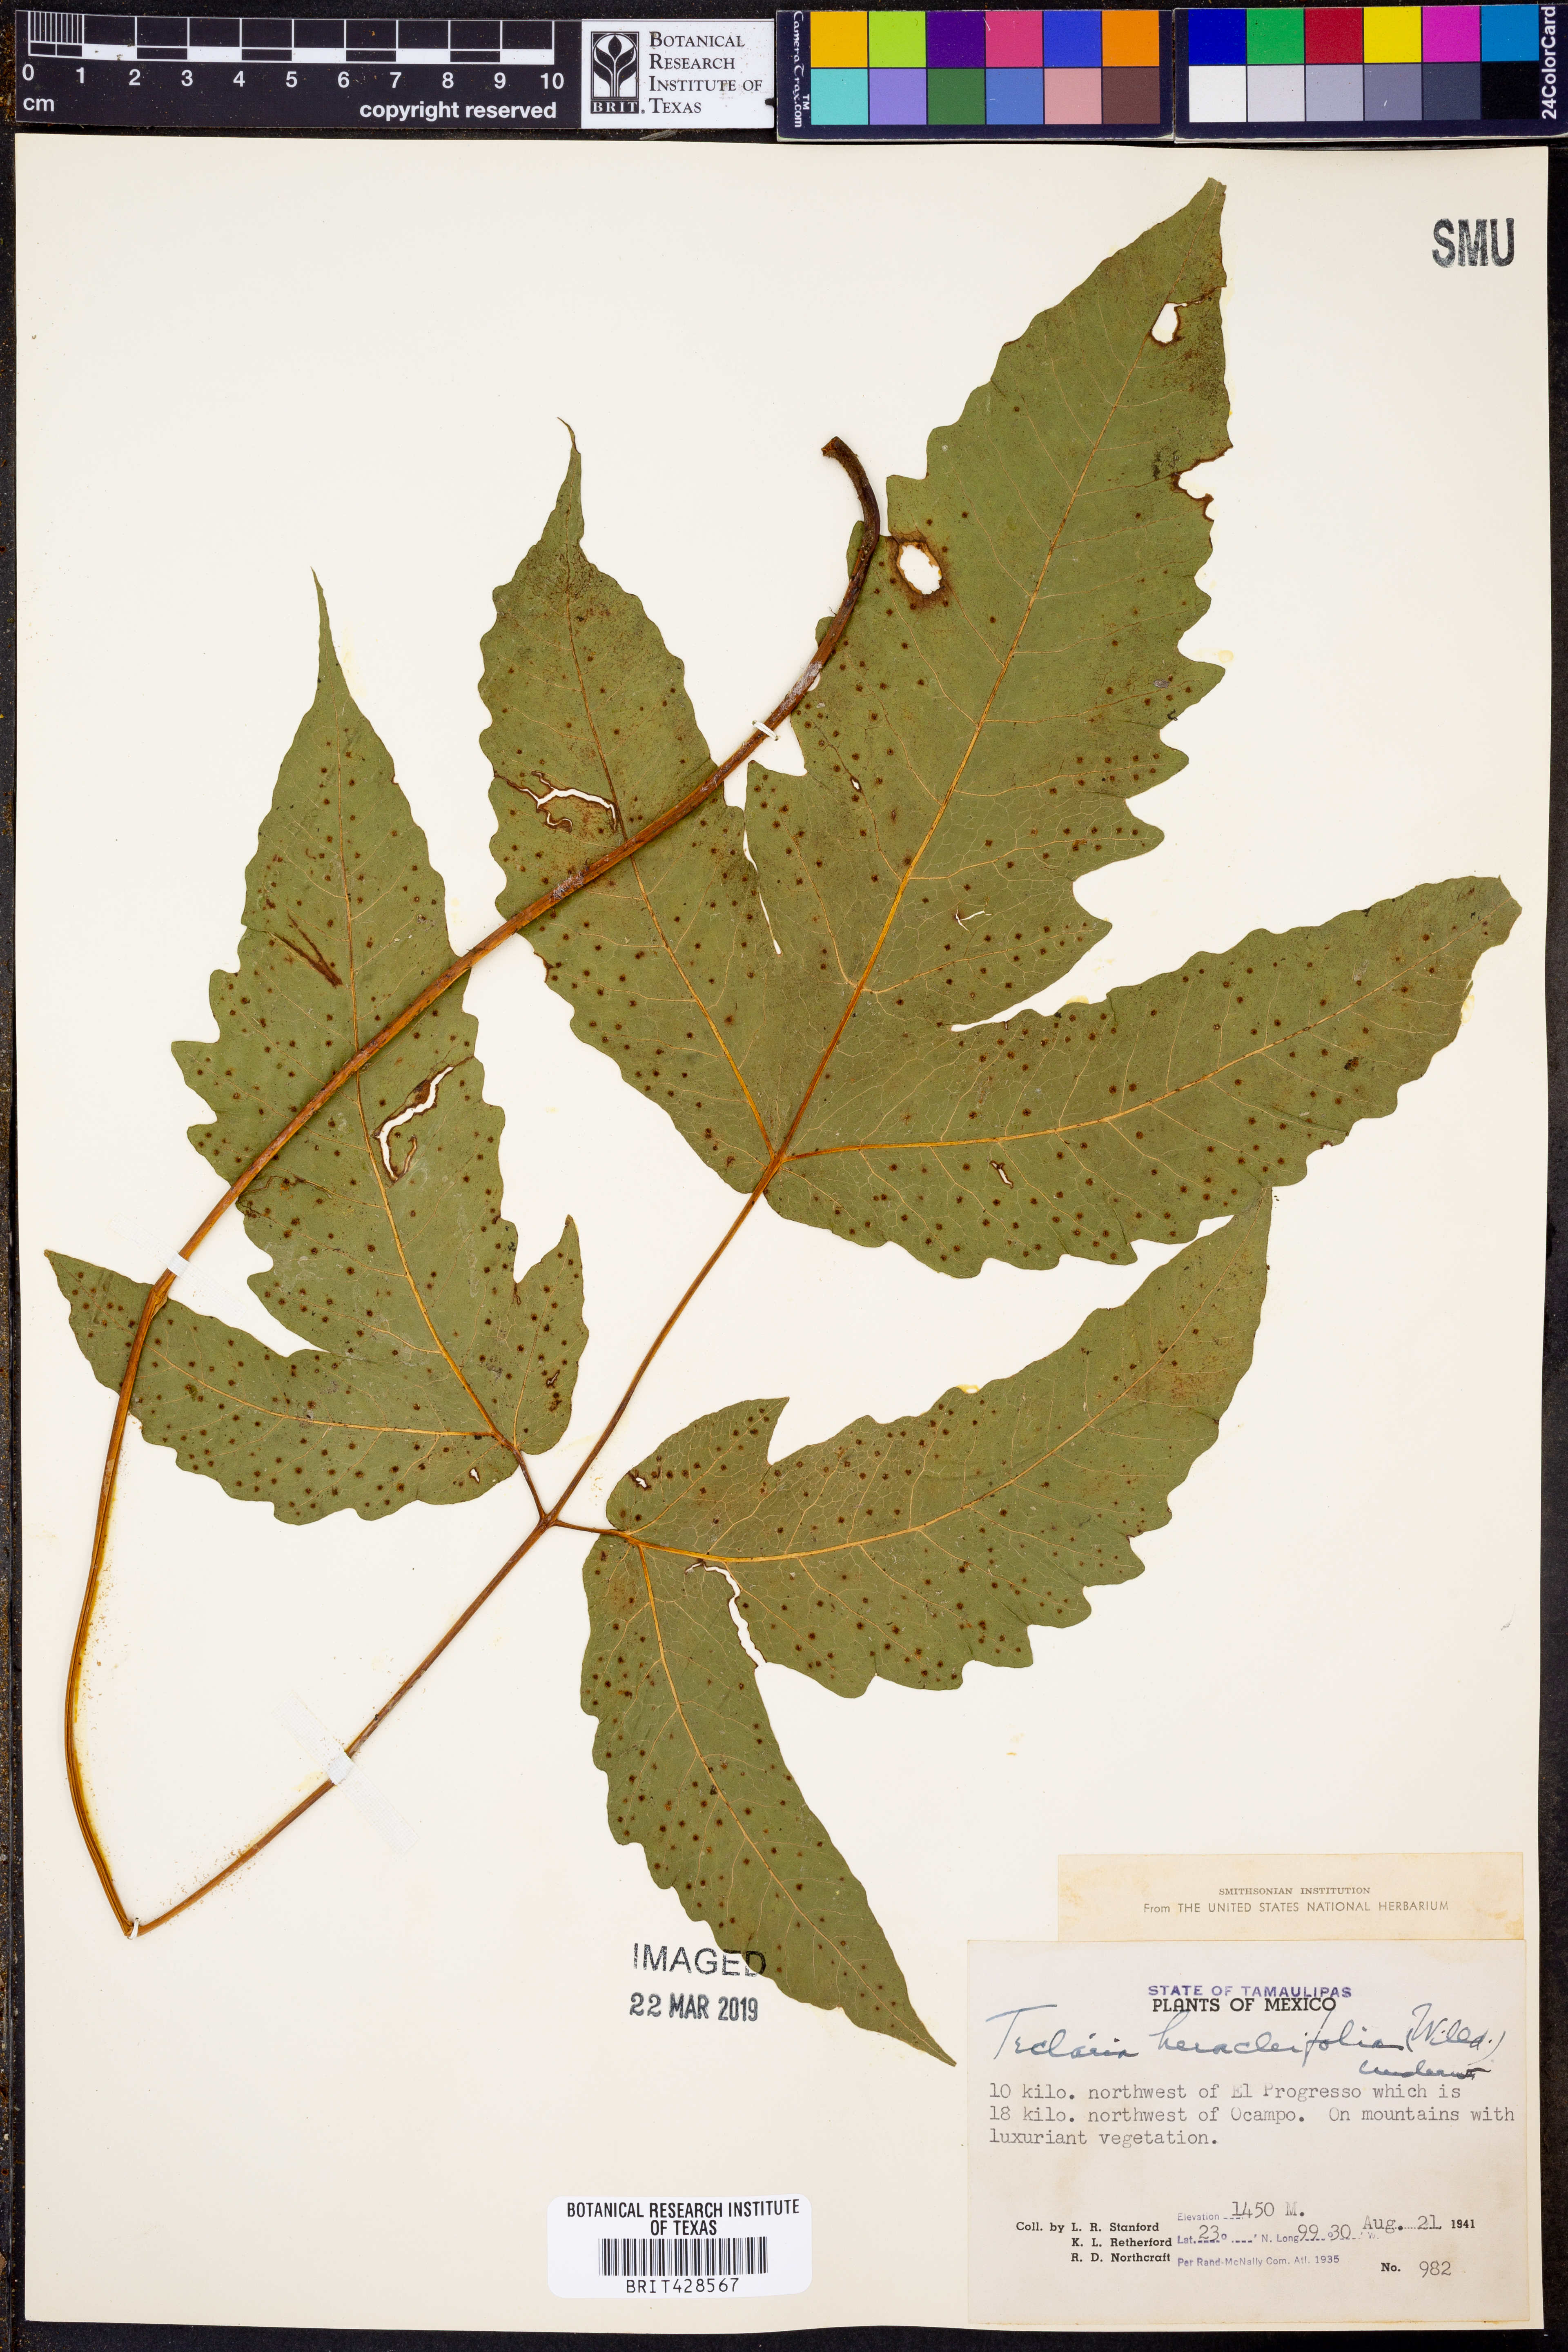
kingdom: Plantae
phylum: Tracheophyta
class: Polypodiopsida
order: Polypodiales
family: Tectariaceae
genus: Tectaria
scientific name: Tectaria heracleifolia
